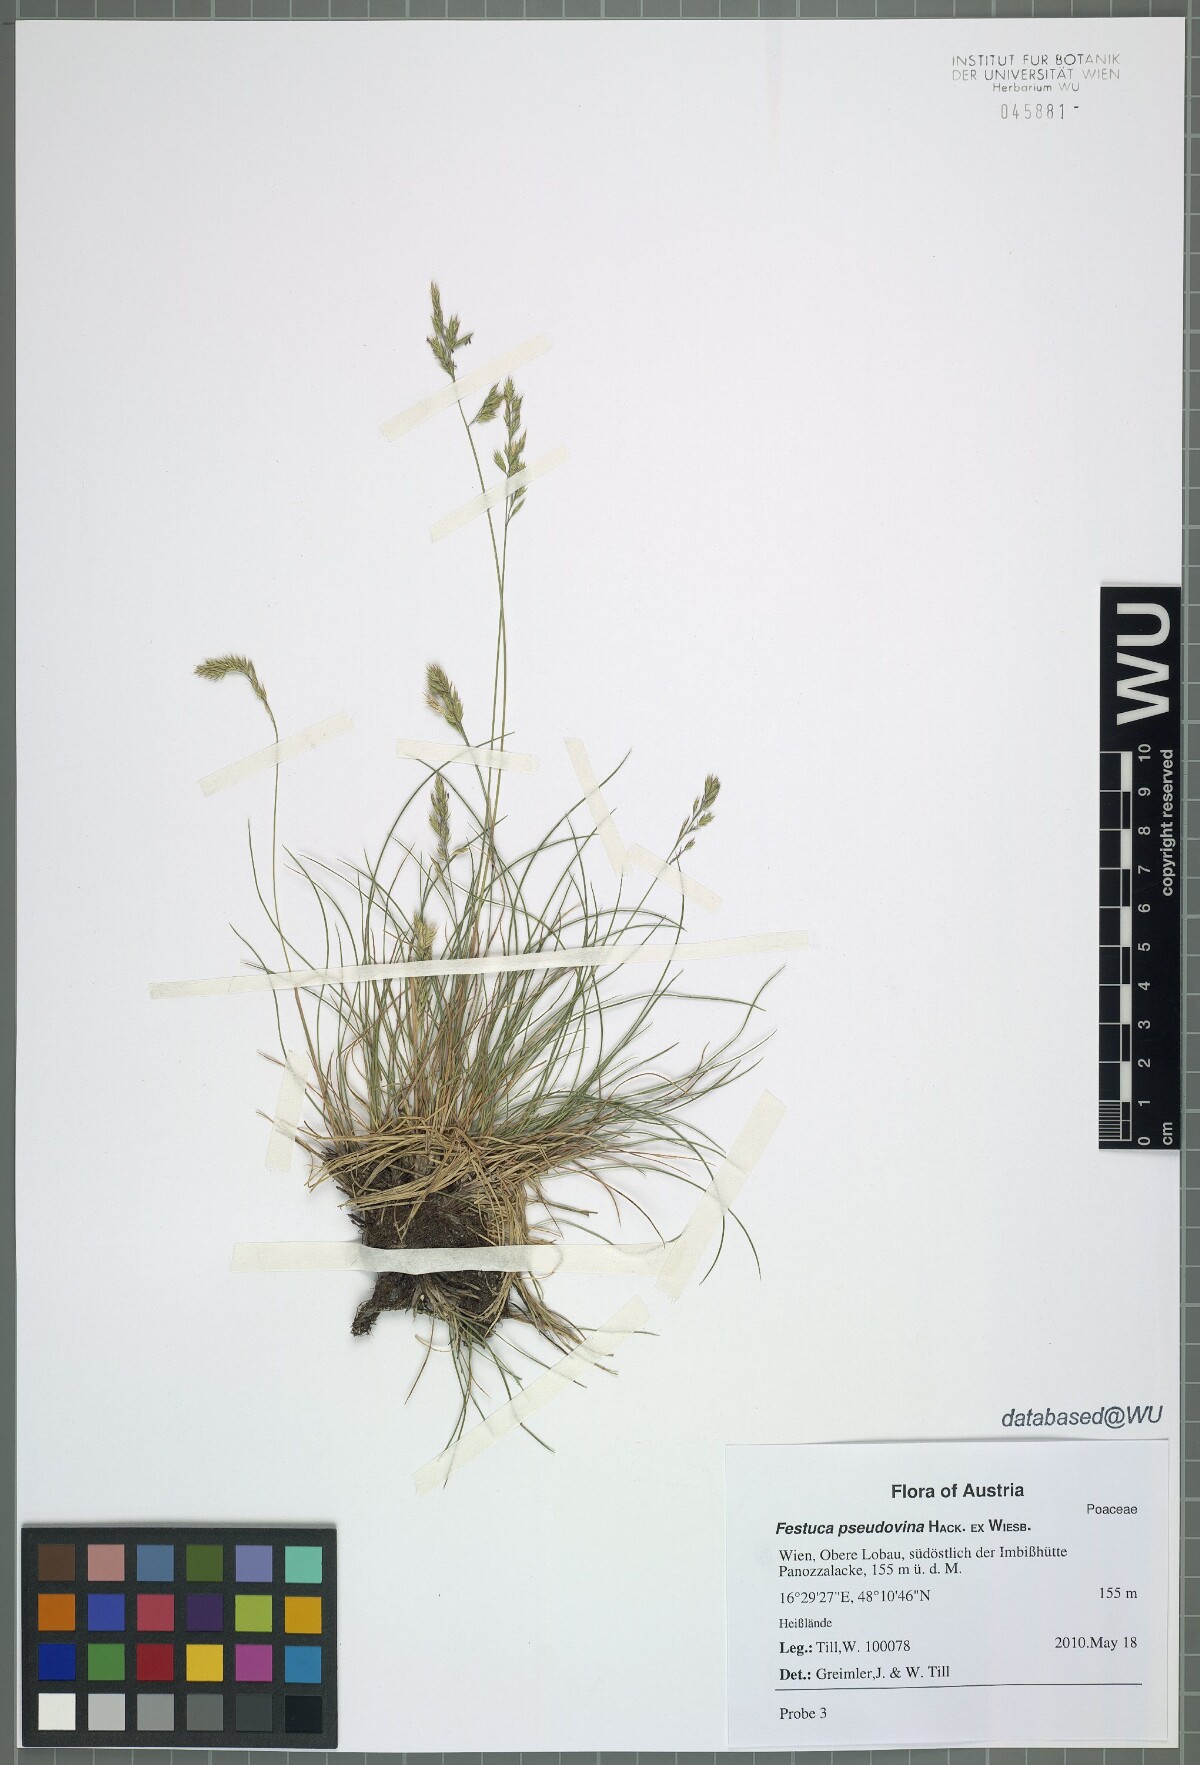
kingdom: Plantae
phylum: Tracheophyta
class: Liliopsida
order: Poales
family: Poaceae
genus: Festuca
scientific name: Festuca pulchra
